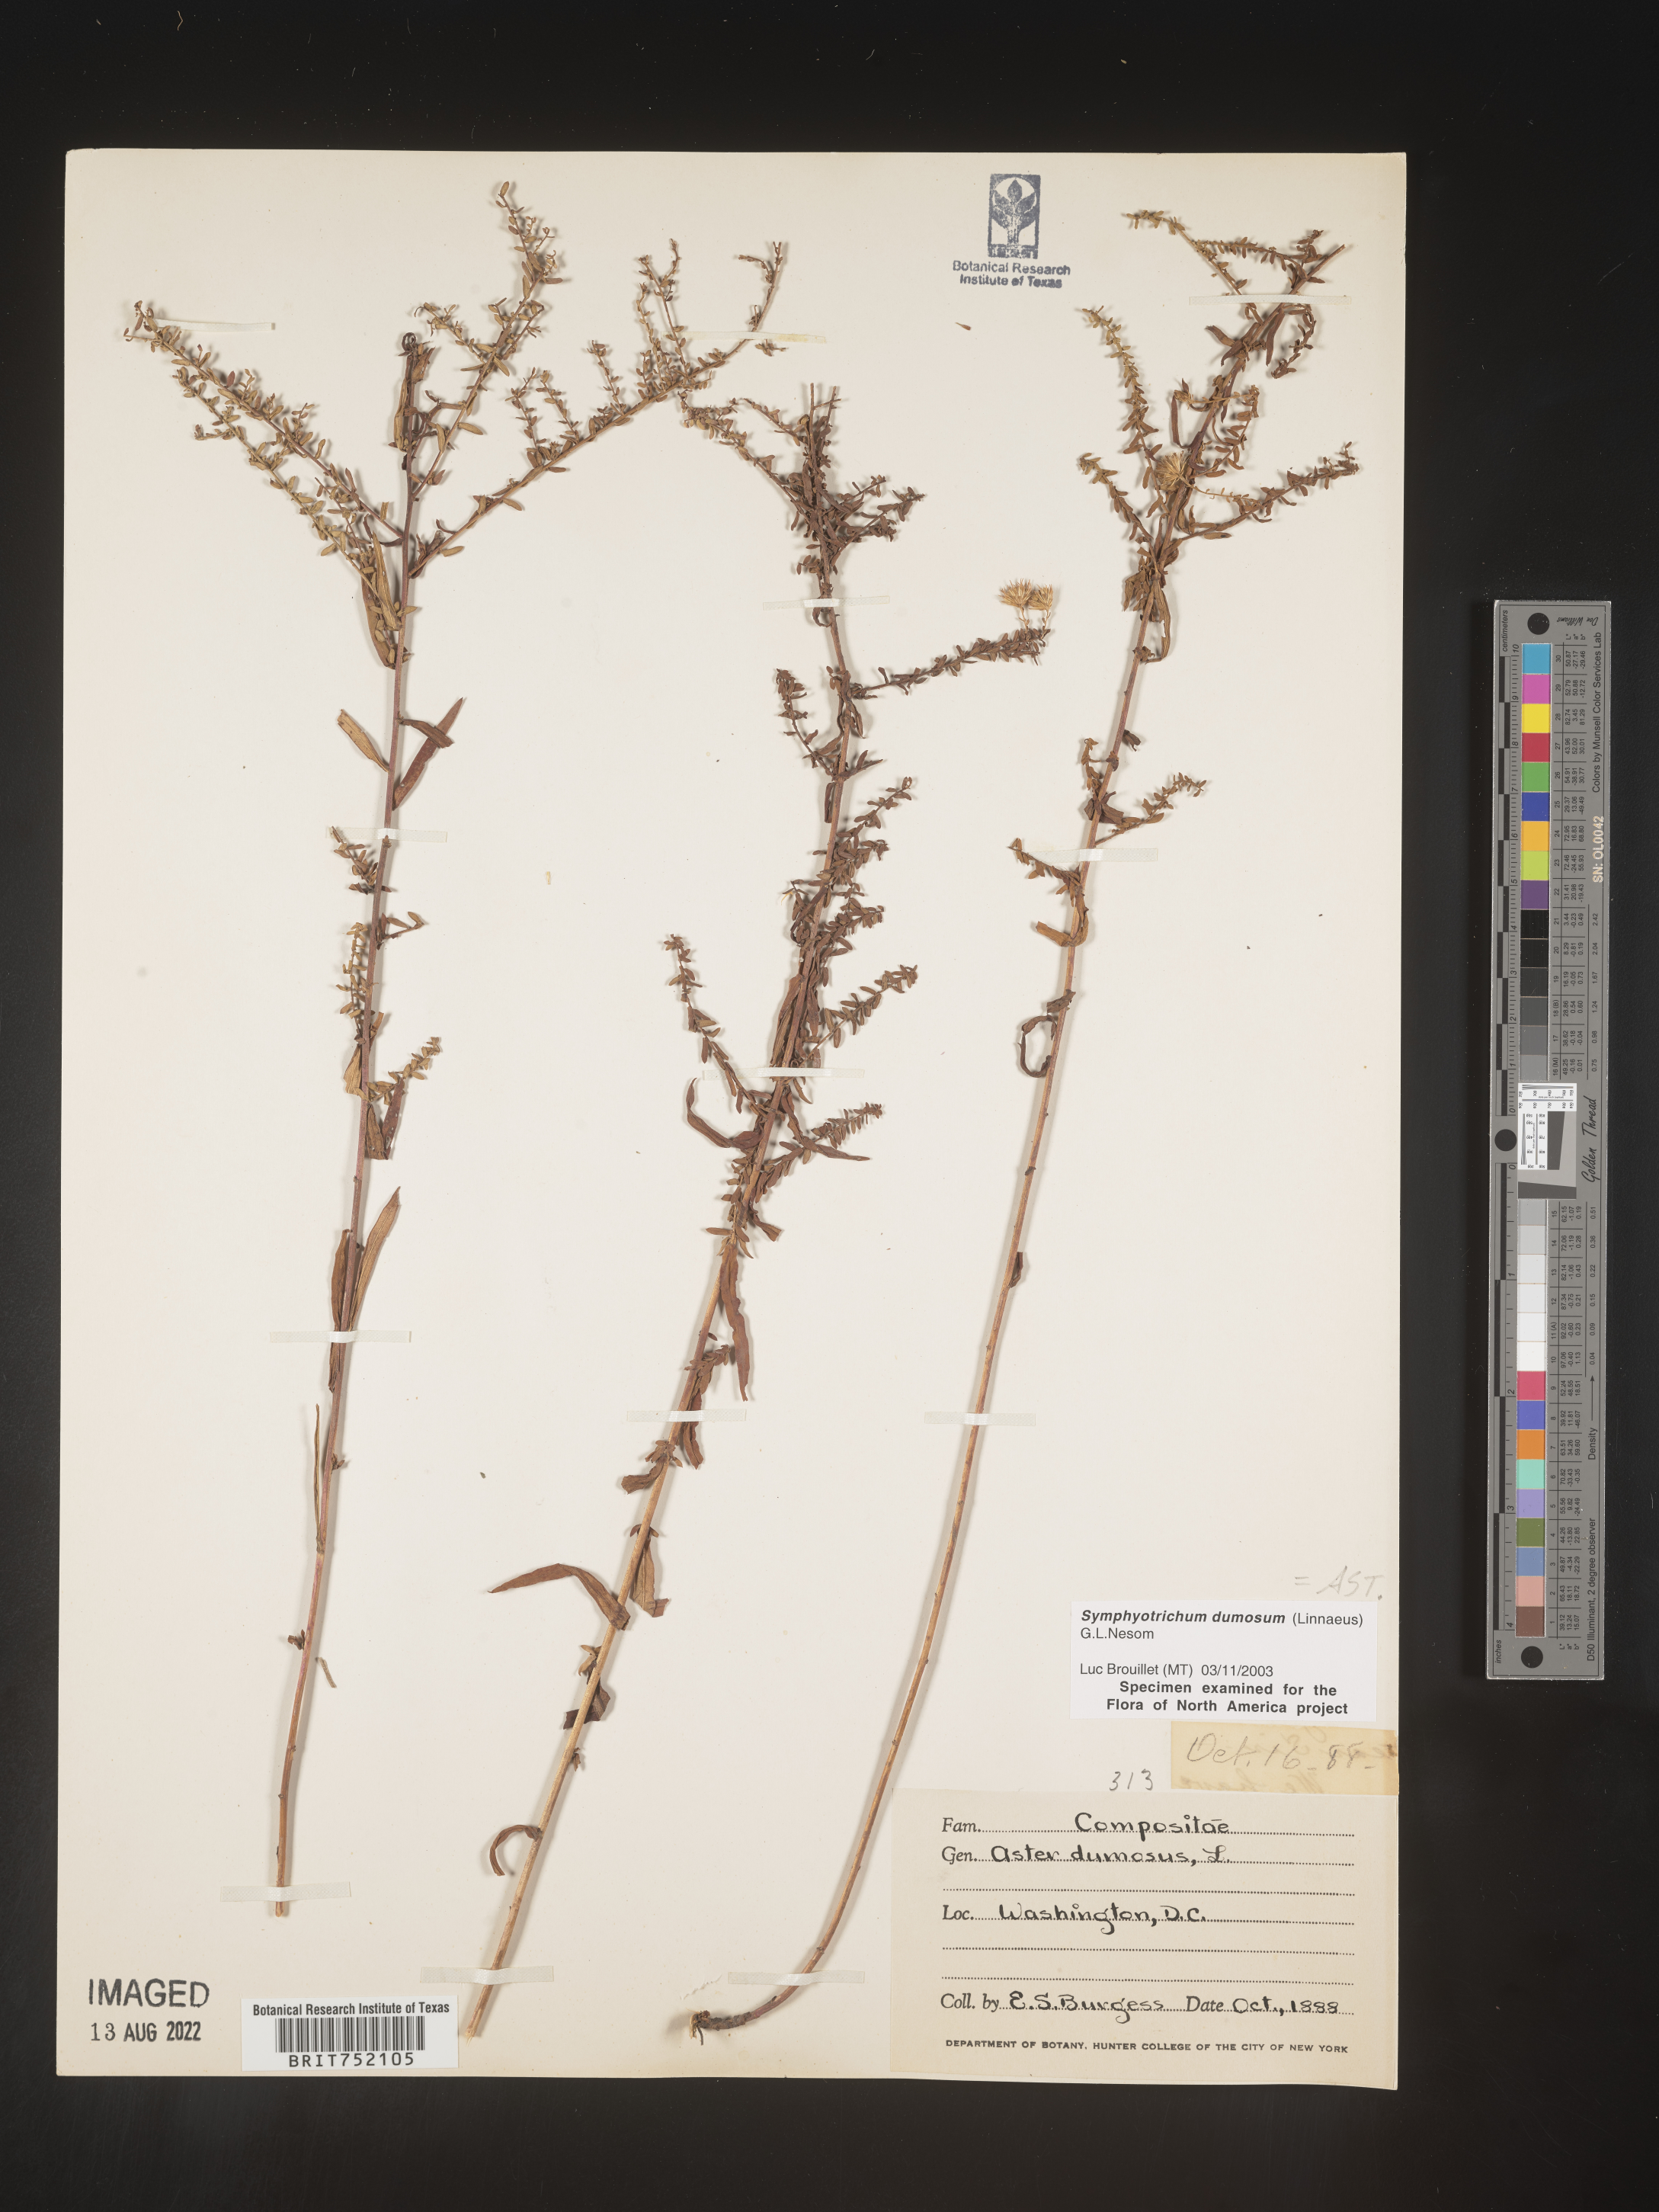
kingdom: Plantae
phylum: Tracheophyta
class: Magnoliopsida
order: Asterales
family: Asteraceae
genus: Symphyotrichum
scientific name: Symphyotrichum dumosum
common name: Bushy aster
